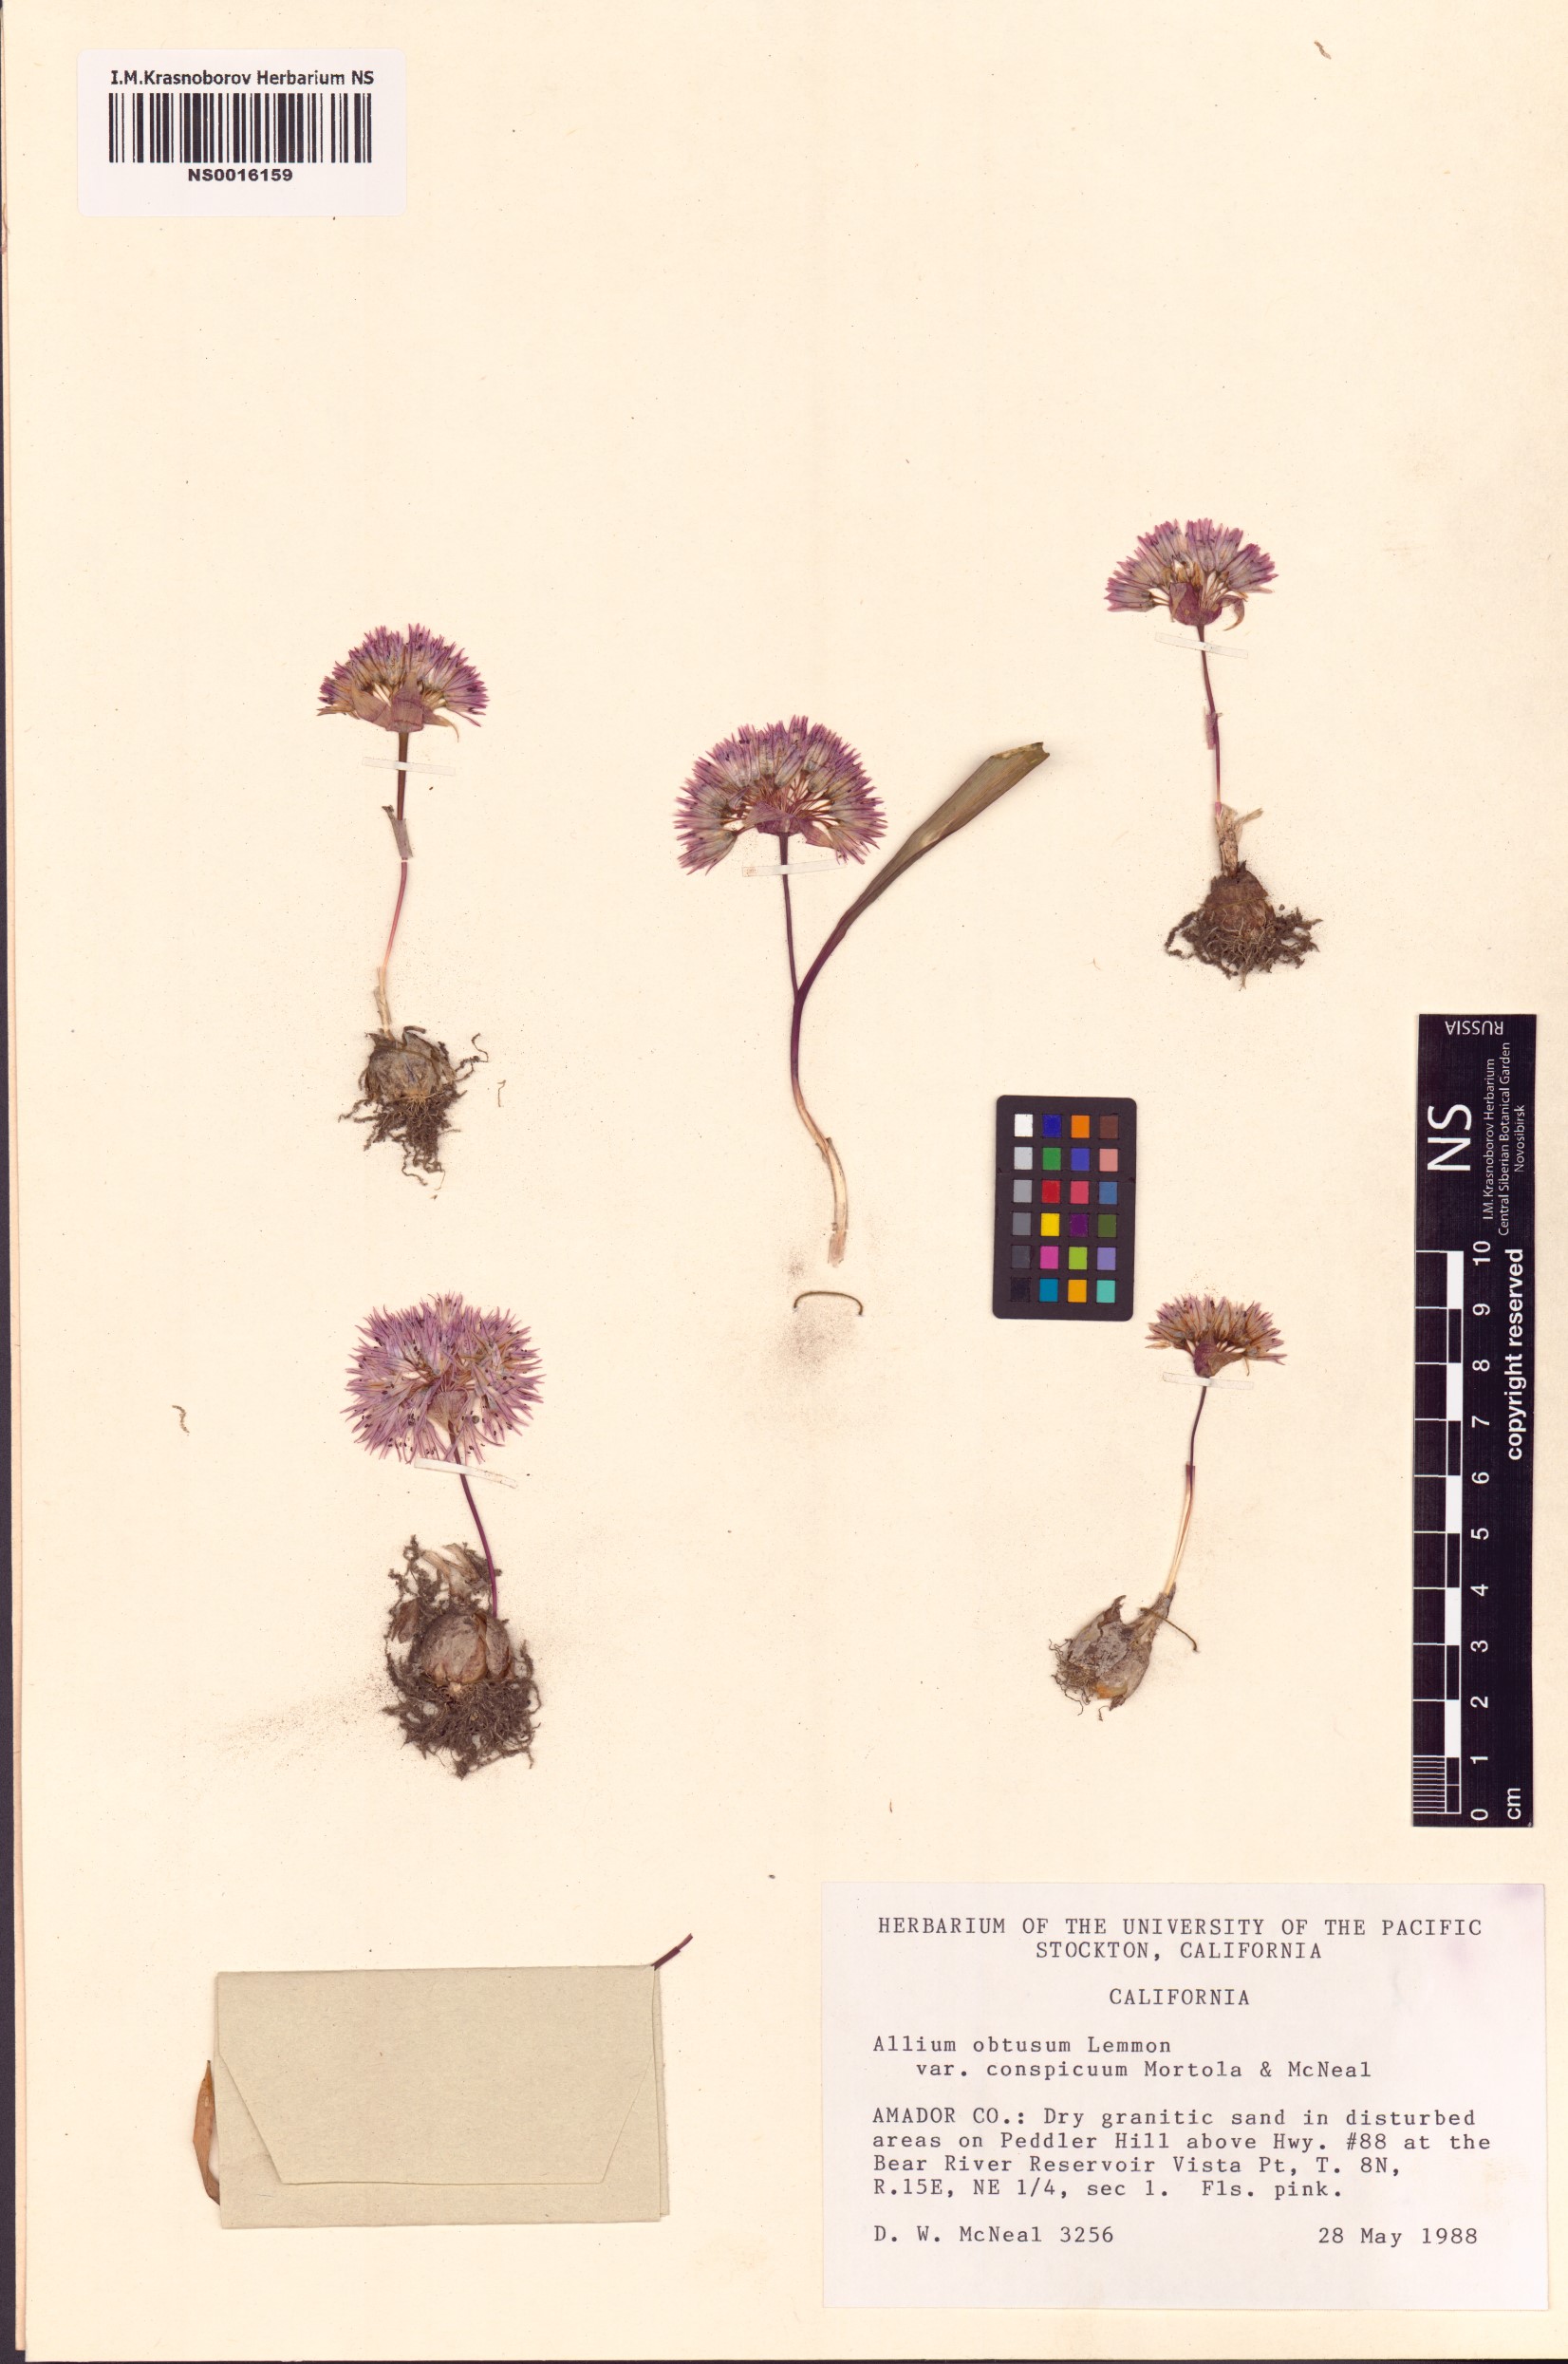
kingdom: Plantae
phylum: Tracheophyta
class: Liliopsida
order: Asparagales
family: Amaryllidaceae
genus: Allium
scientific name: Allium obtusum
